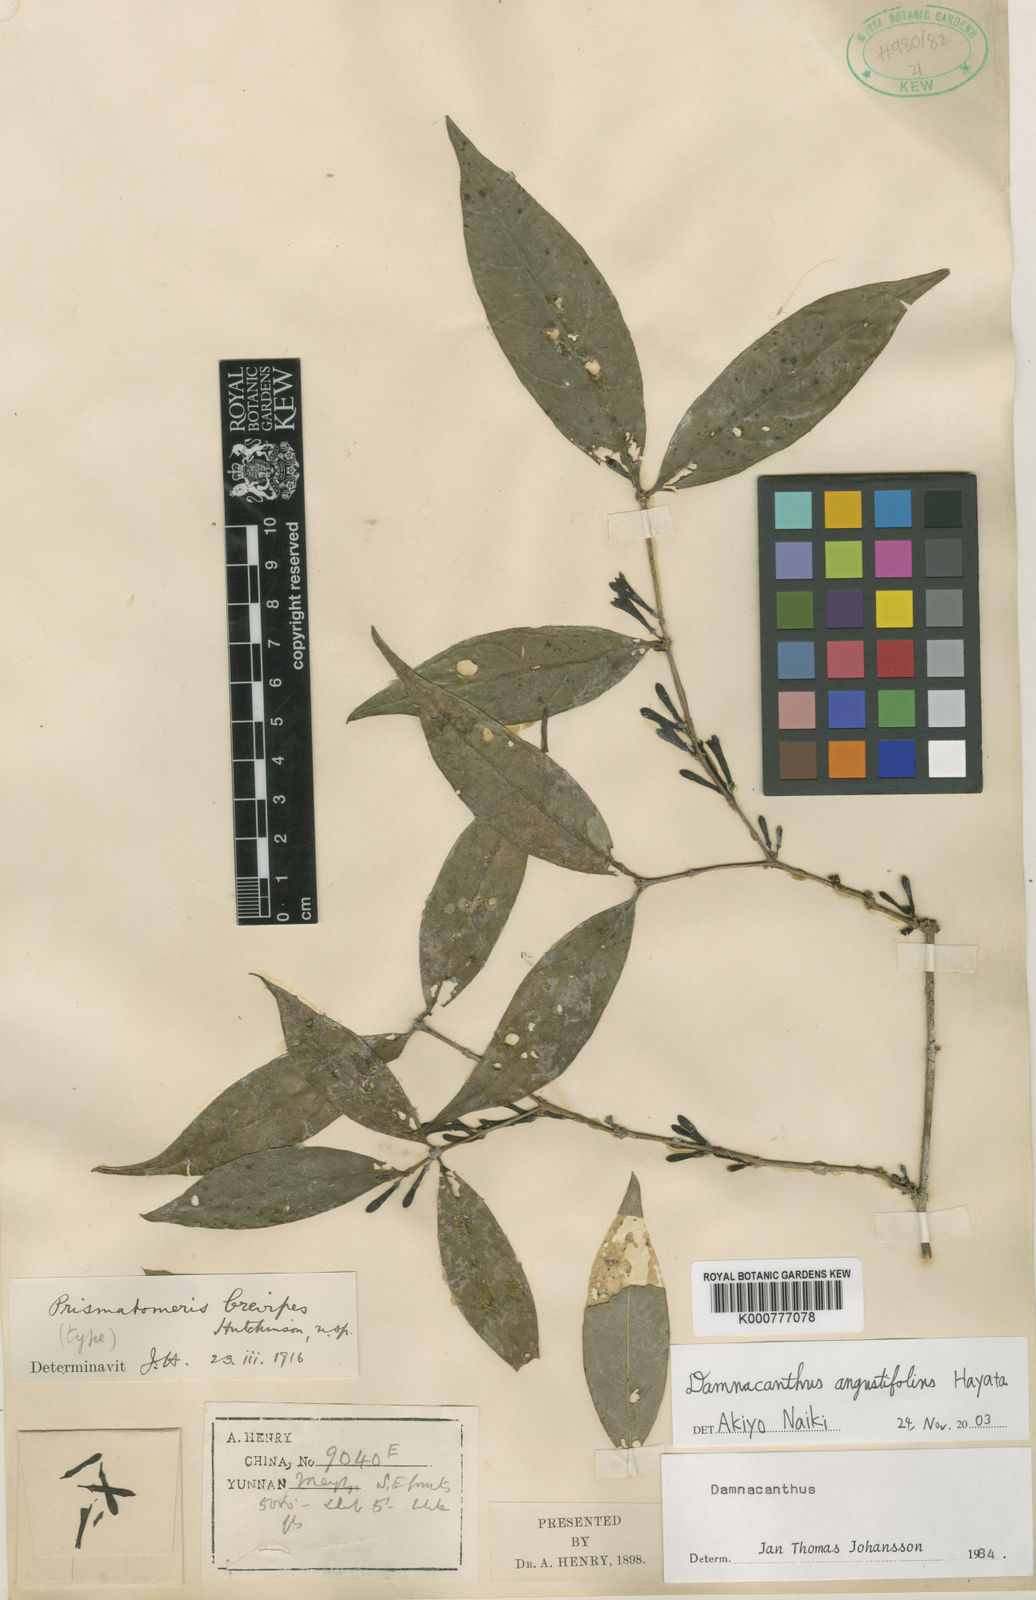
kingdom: Plantae
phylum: Tracheophyta
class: Magnoliopsida
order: Gentianales
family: Rubiaceae
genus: Damnacanthus
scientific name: Damnacanthus
